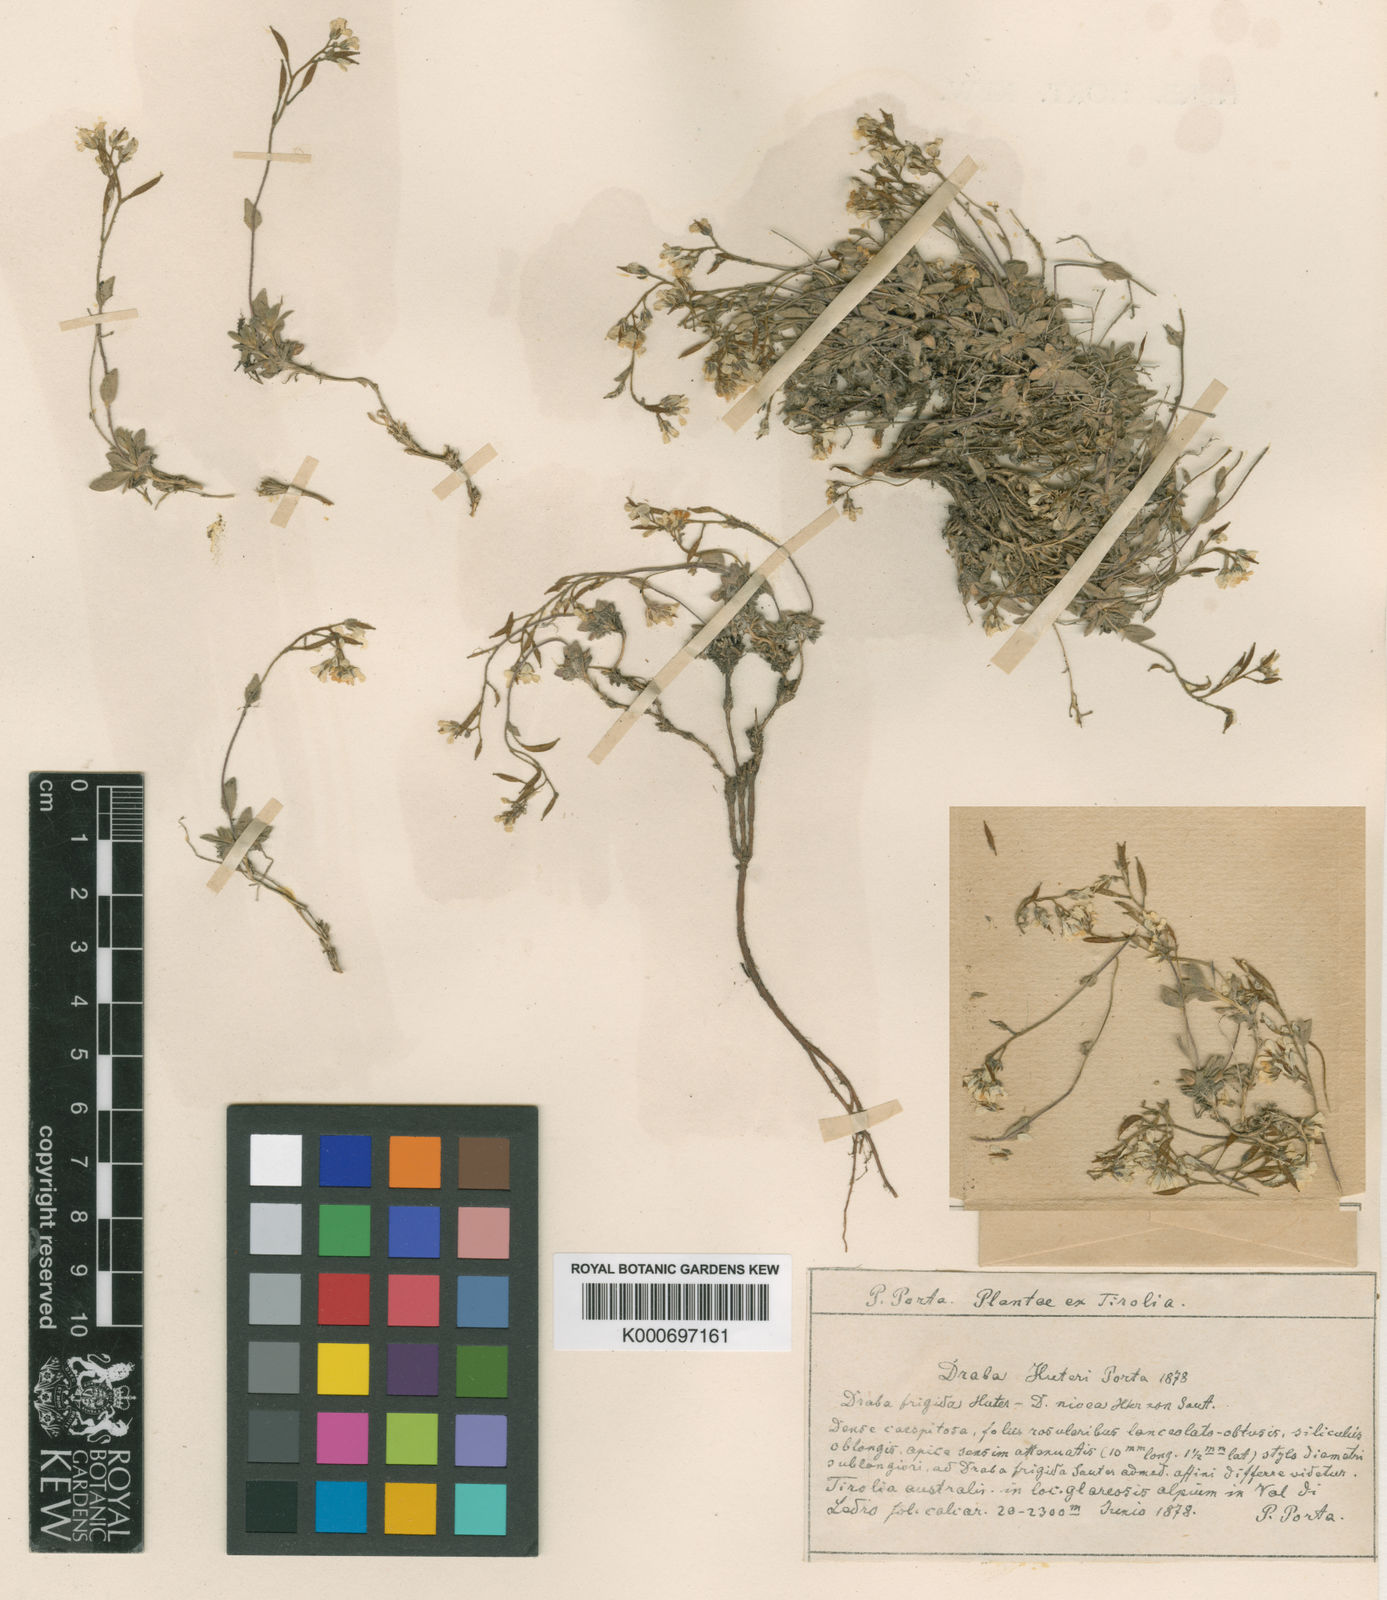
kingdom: Plantae
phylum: Tracheophyta
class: Magnoliopsida
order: Brassicales
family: Brassicaceae
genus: Draba
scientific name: Draba dubia
